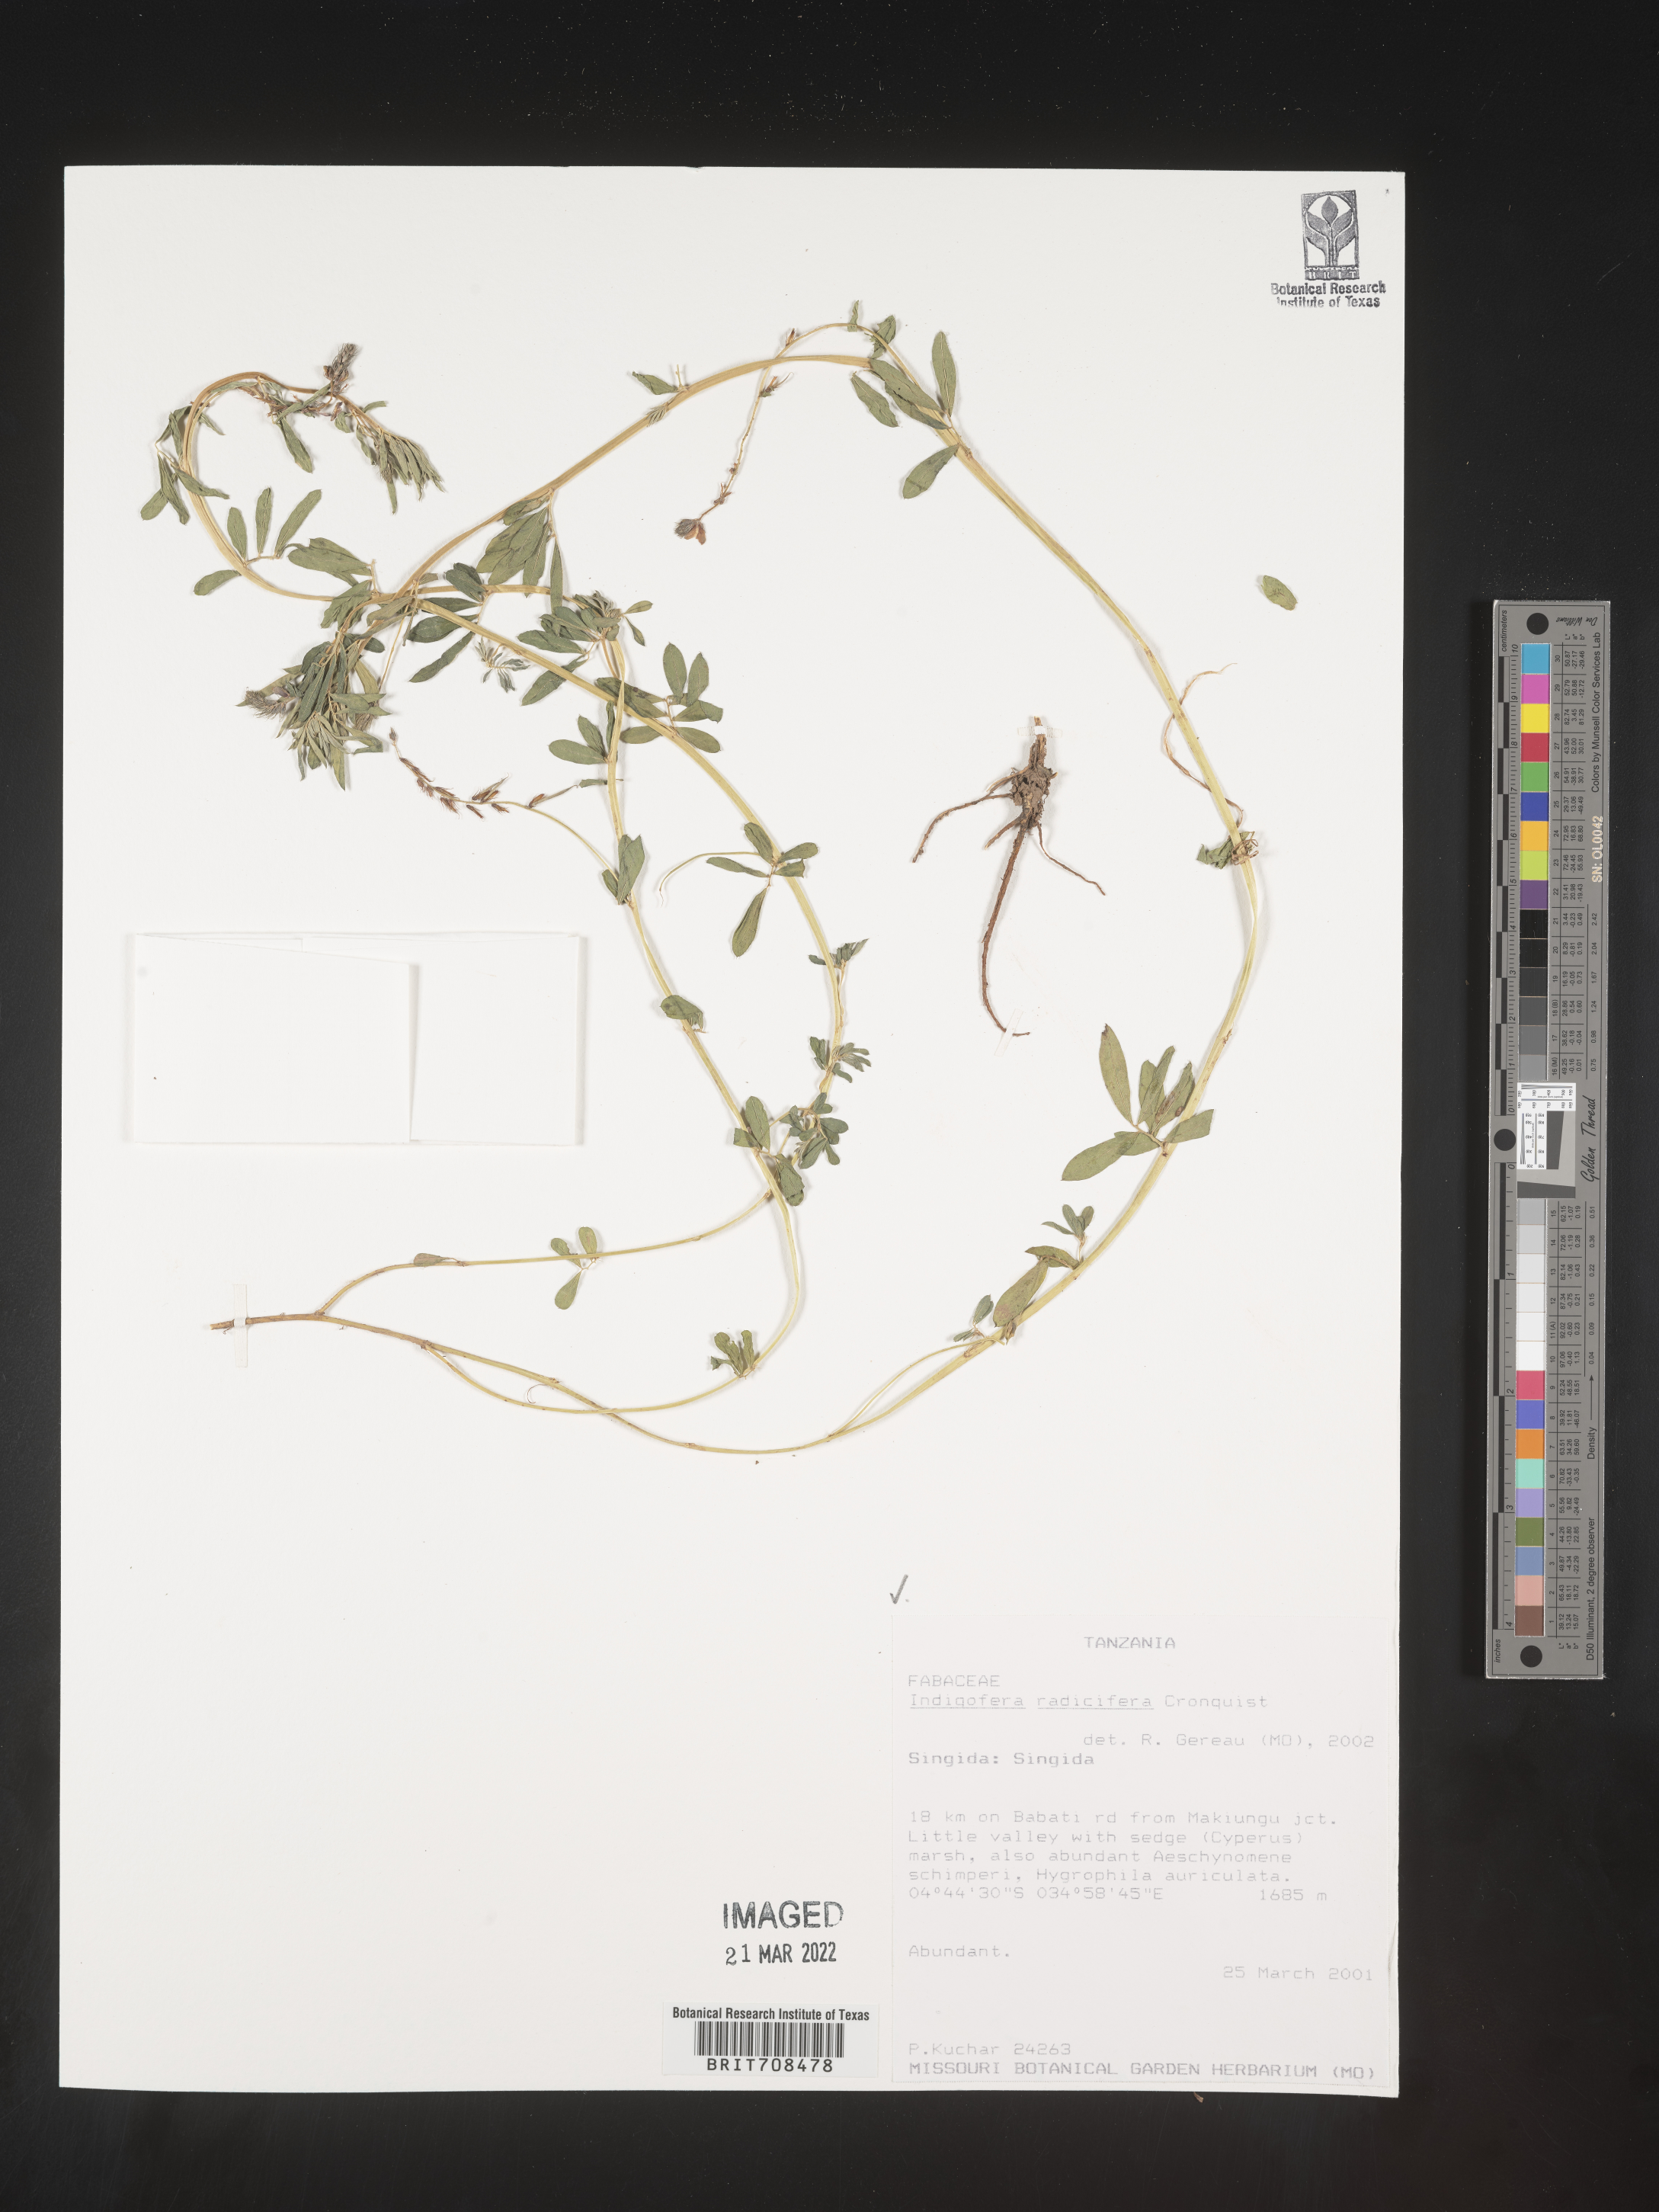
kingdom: Plantae
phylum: Tracheophyta
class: Magnoliopsida
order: Fabales
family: Fabaceae
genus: Indigofera
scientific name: Indigofera
